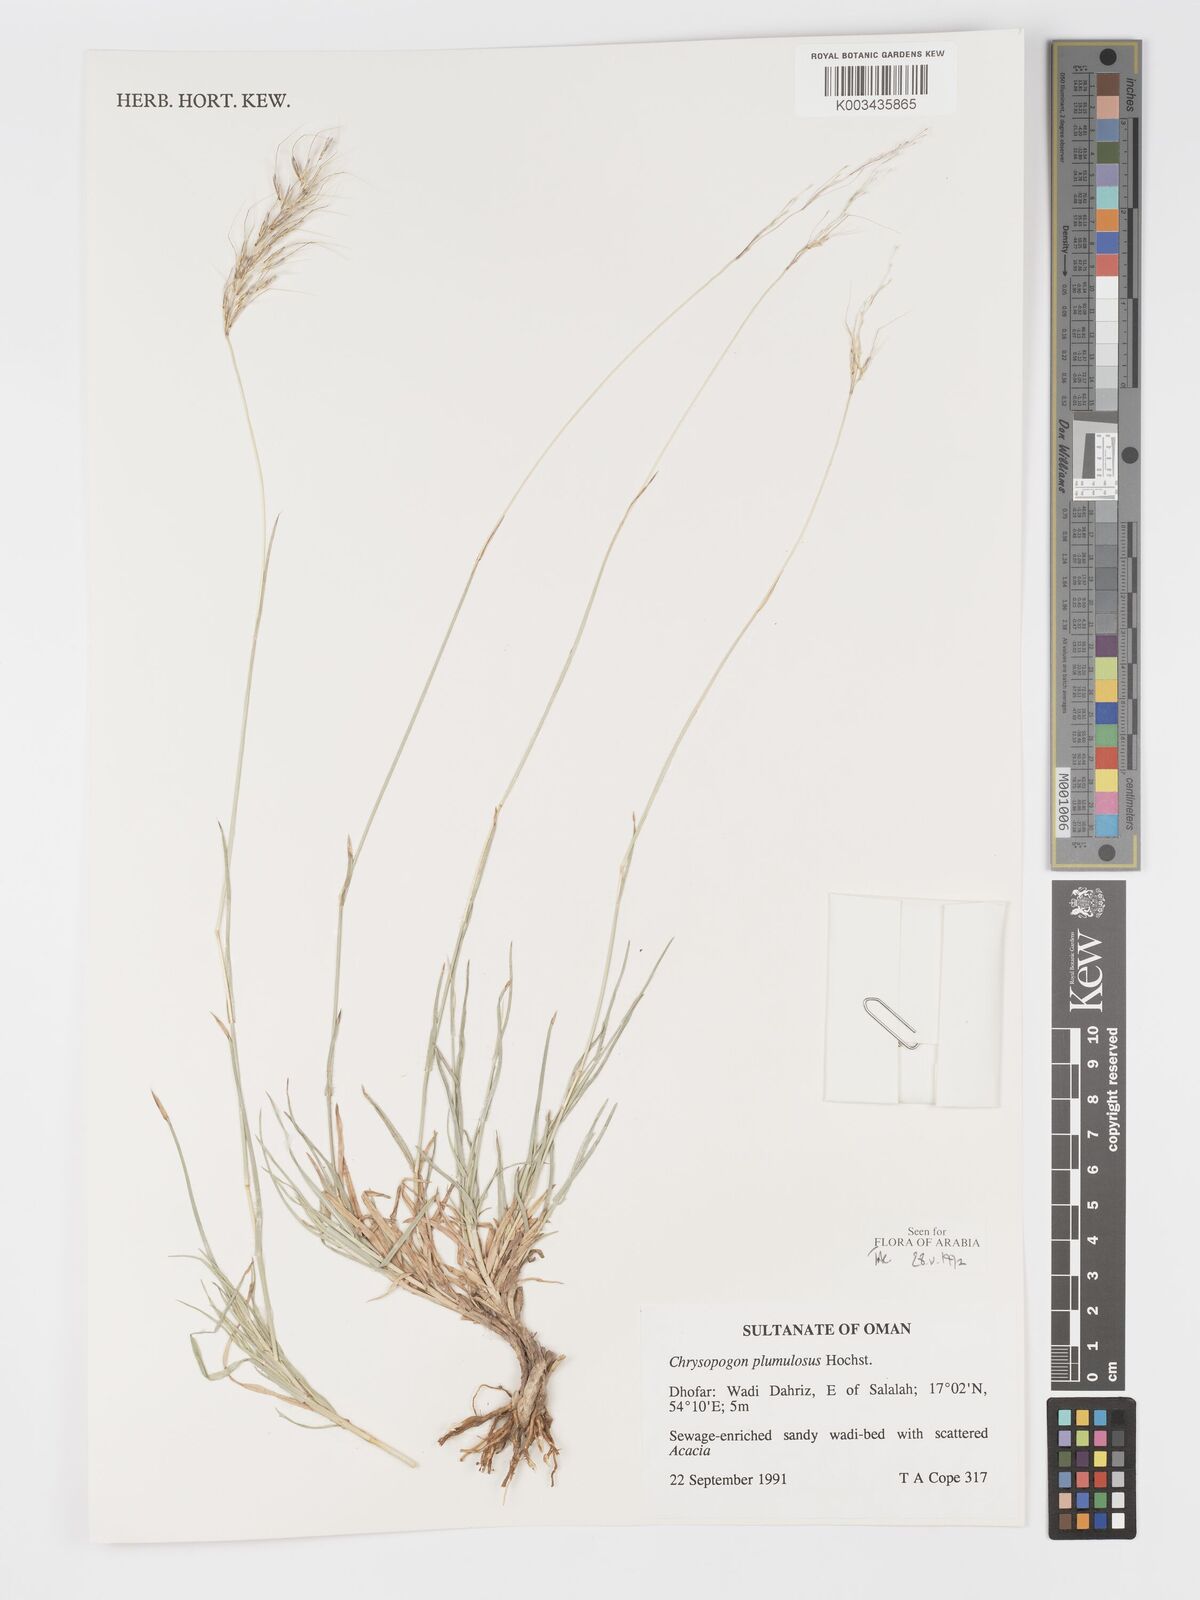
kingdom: Plantae
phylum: Tracheophyta
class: Liliopsida
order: Poales
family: Poaceae
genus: Chrysopogon
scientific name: Chrysopogon plumulosus
